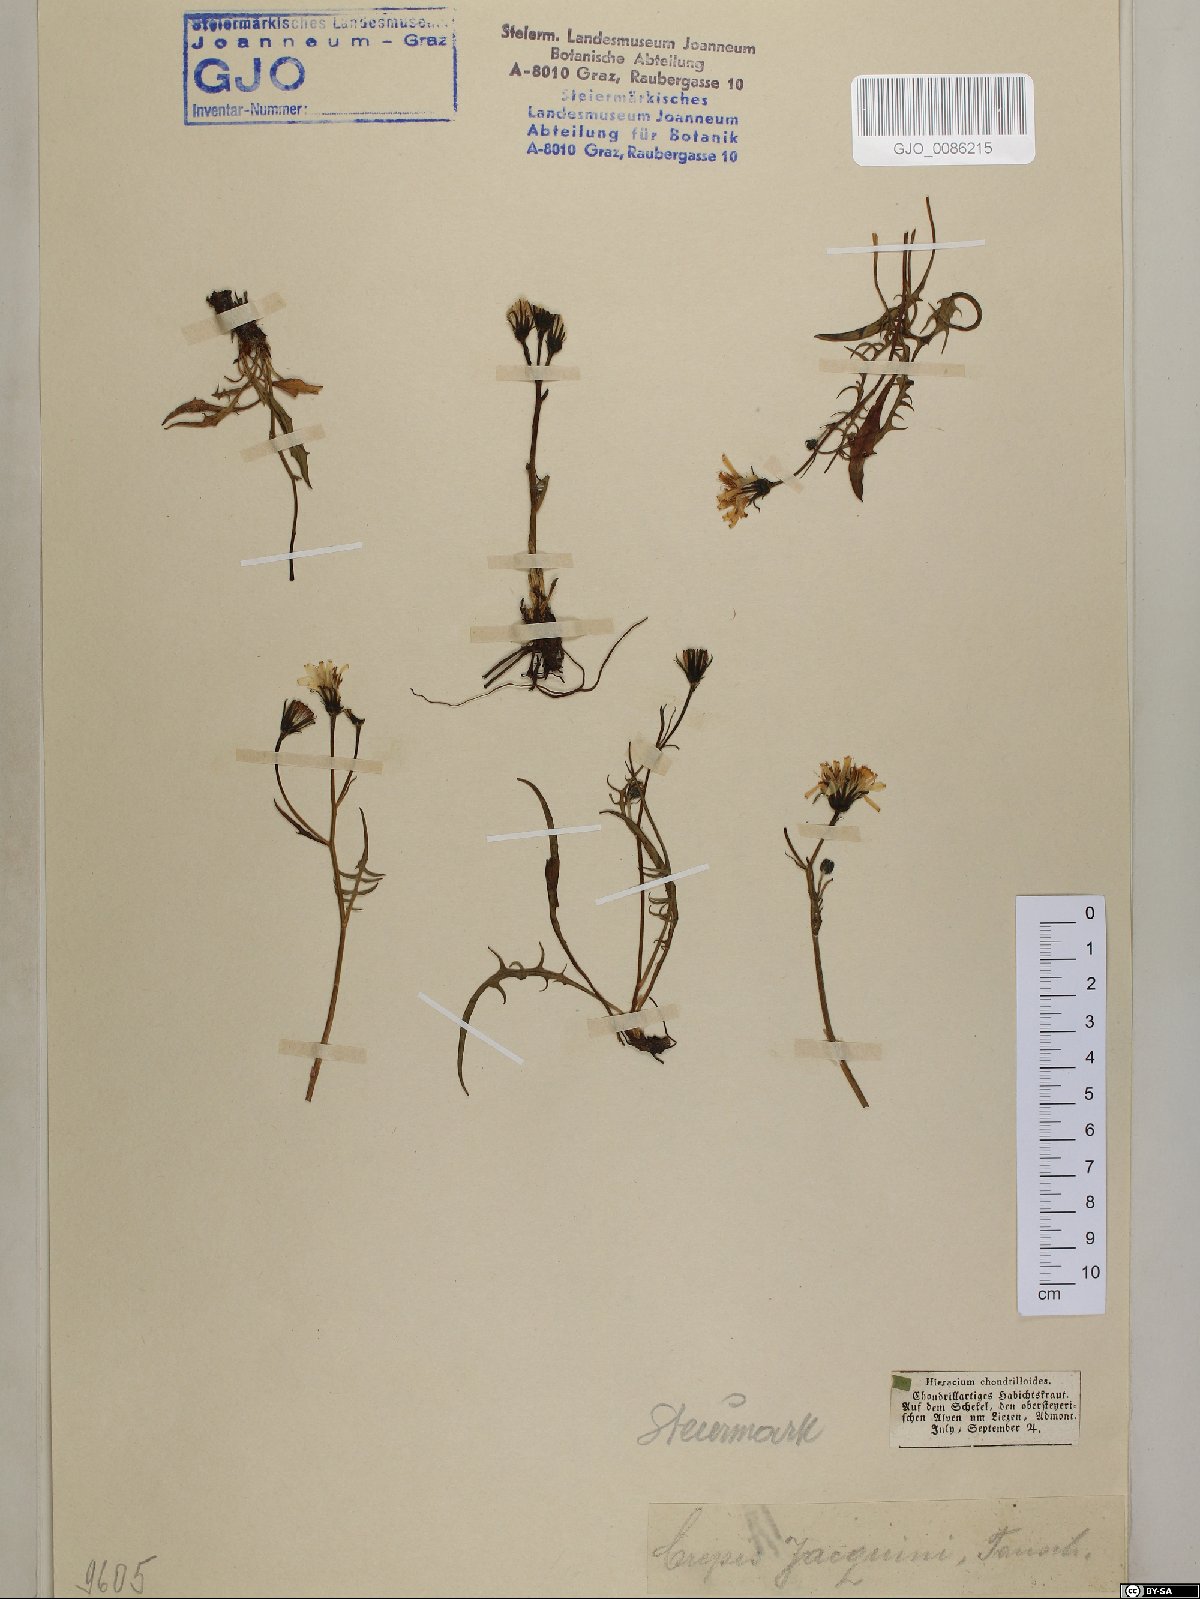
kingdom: Plantae
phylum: Tracheophyta
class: Magnoliopsida
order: Asterales
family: Asteraceae
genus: Crepis
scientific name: Crepis jacquinii
